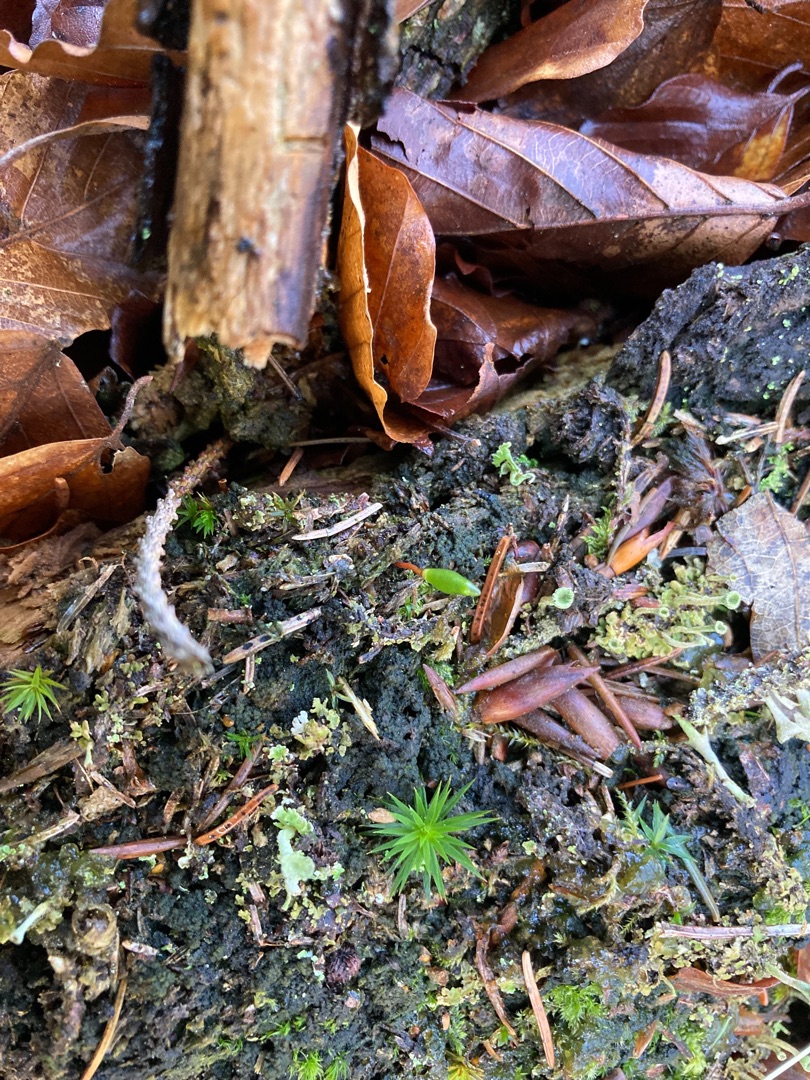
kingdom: Plantae
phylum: Bryophyta
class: Bryopsida
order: Buxbaumiales
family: Buxbaumiaceae
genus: Buxbaumia
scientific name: Buxbaumia viridis
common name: Grøn buxbaumia
